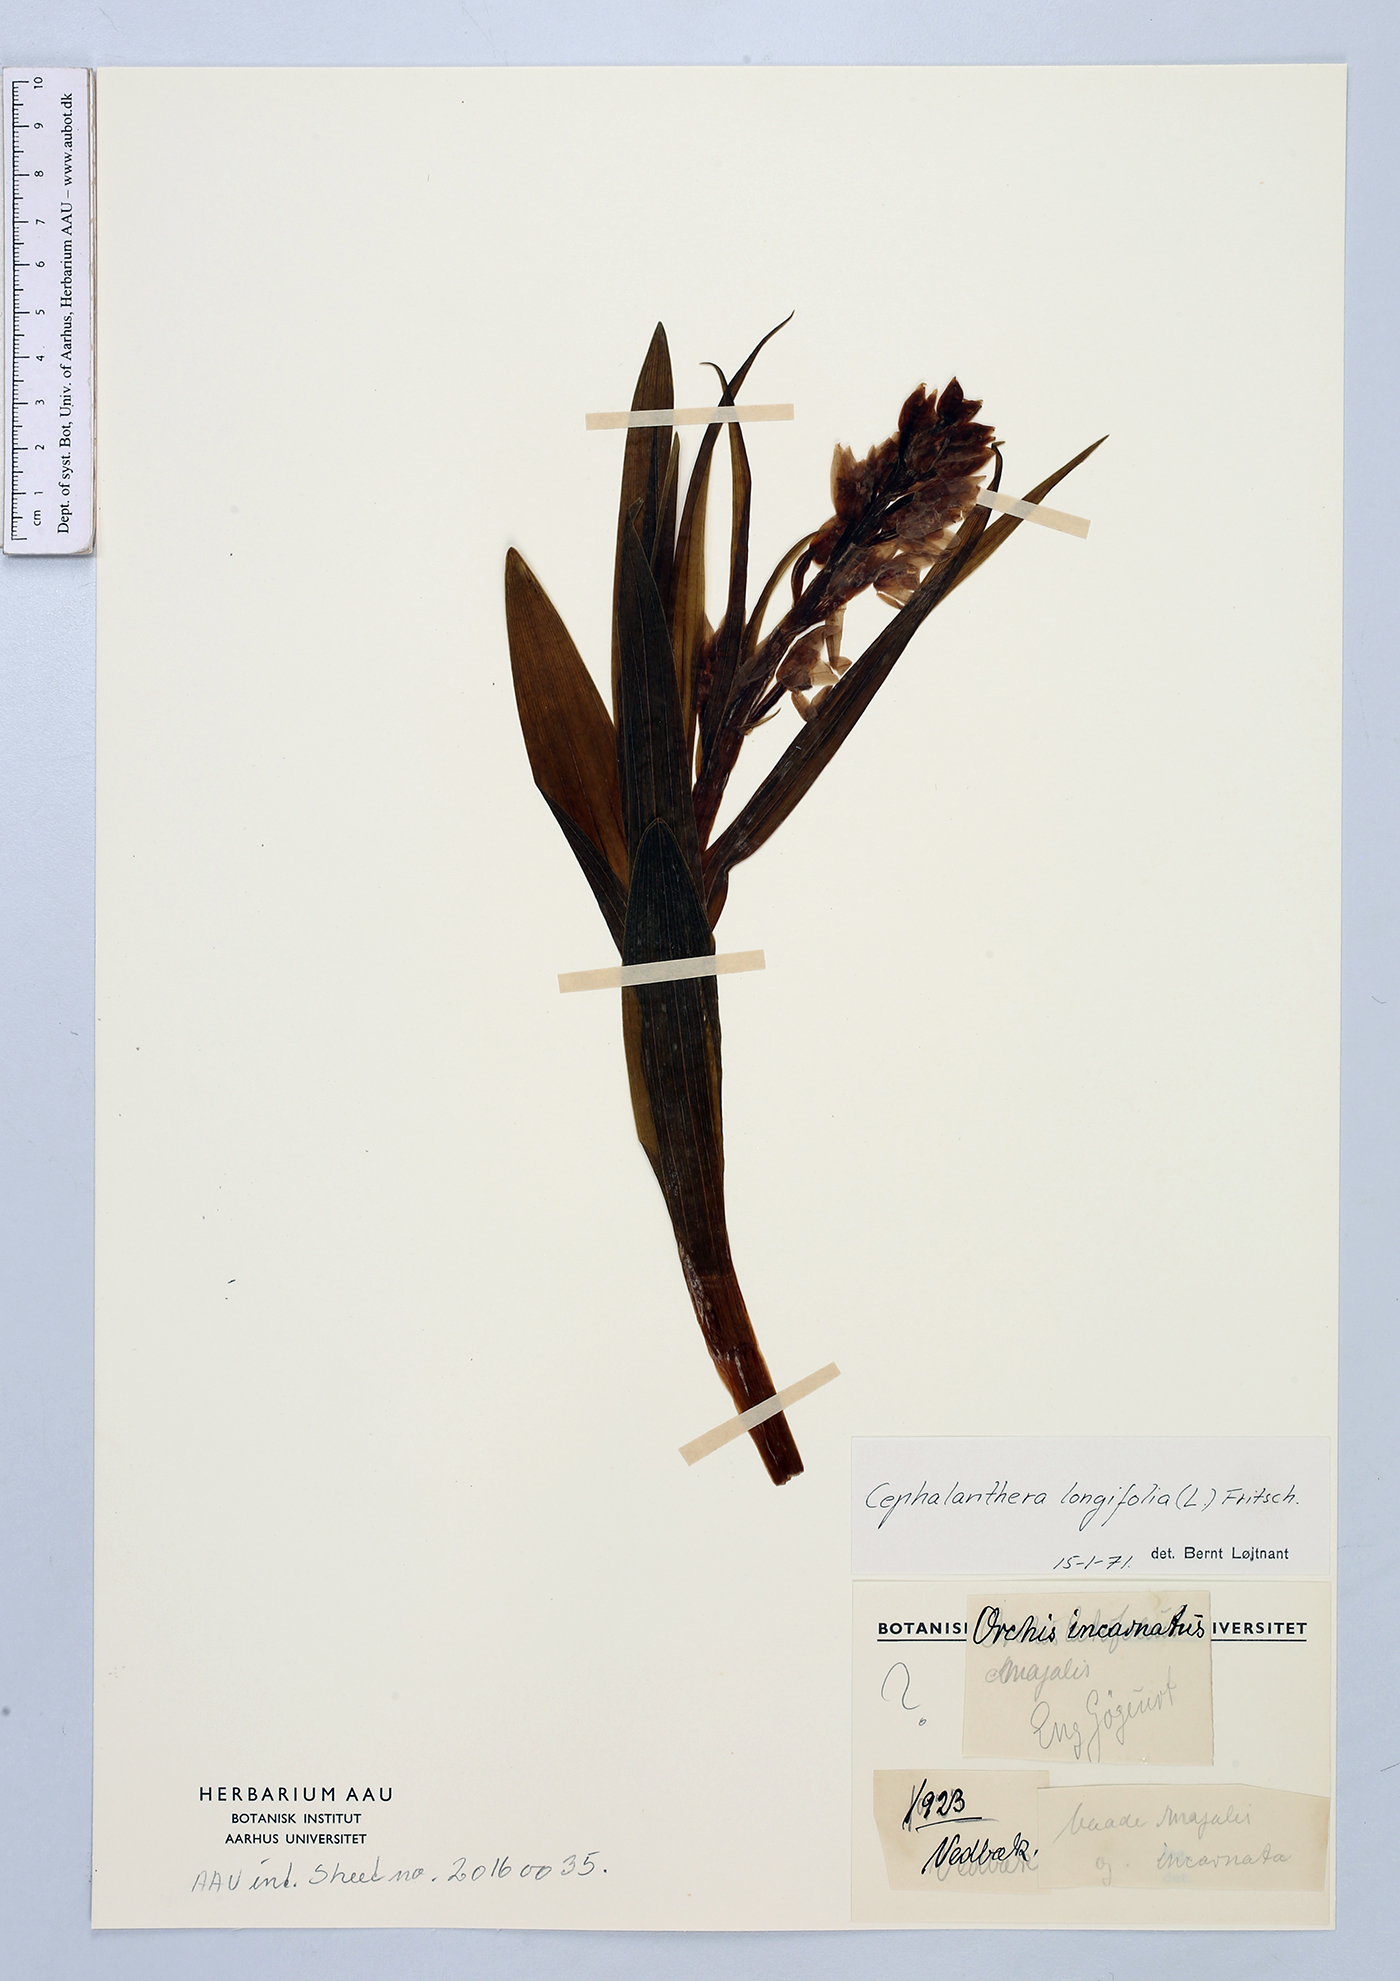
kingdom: Plantae
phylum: Tracheophyta
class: Liliopsida
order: Asparagales
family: Orchidaceae
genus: Cephalanthera
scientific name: Cephalanthera longifolia
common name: Narrow-leaved helleborine
